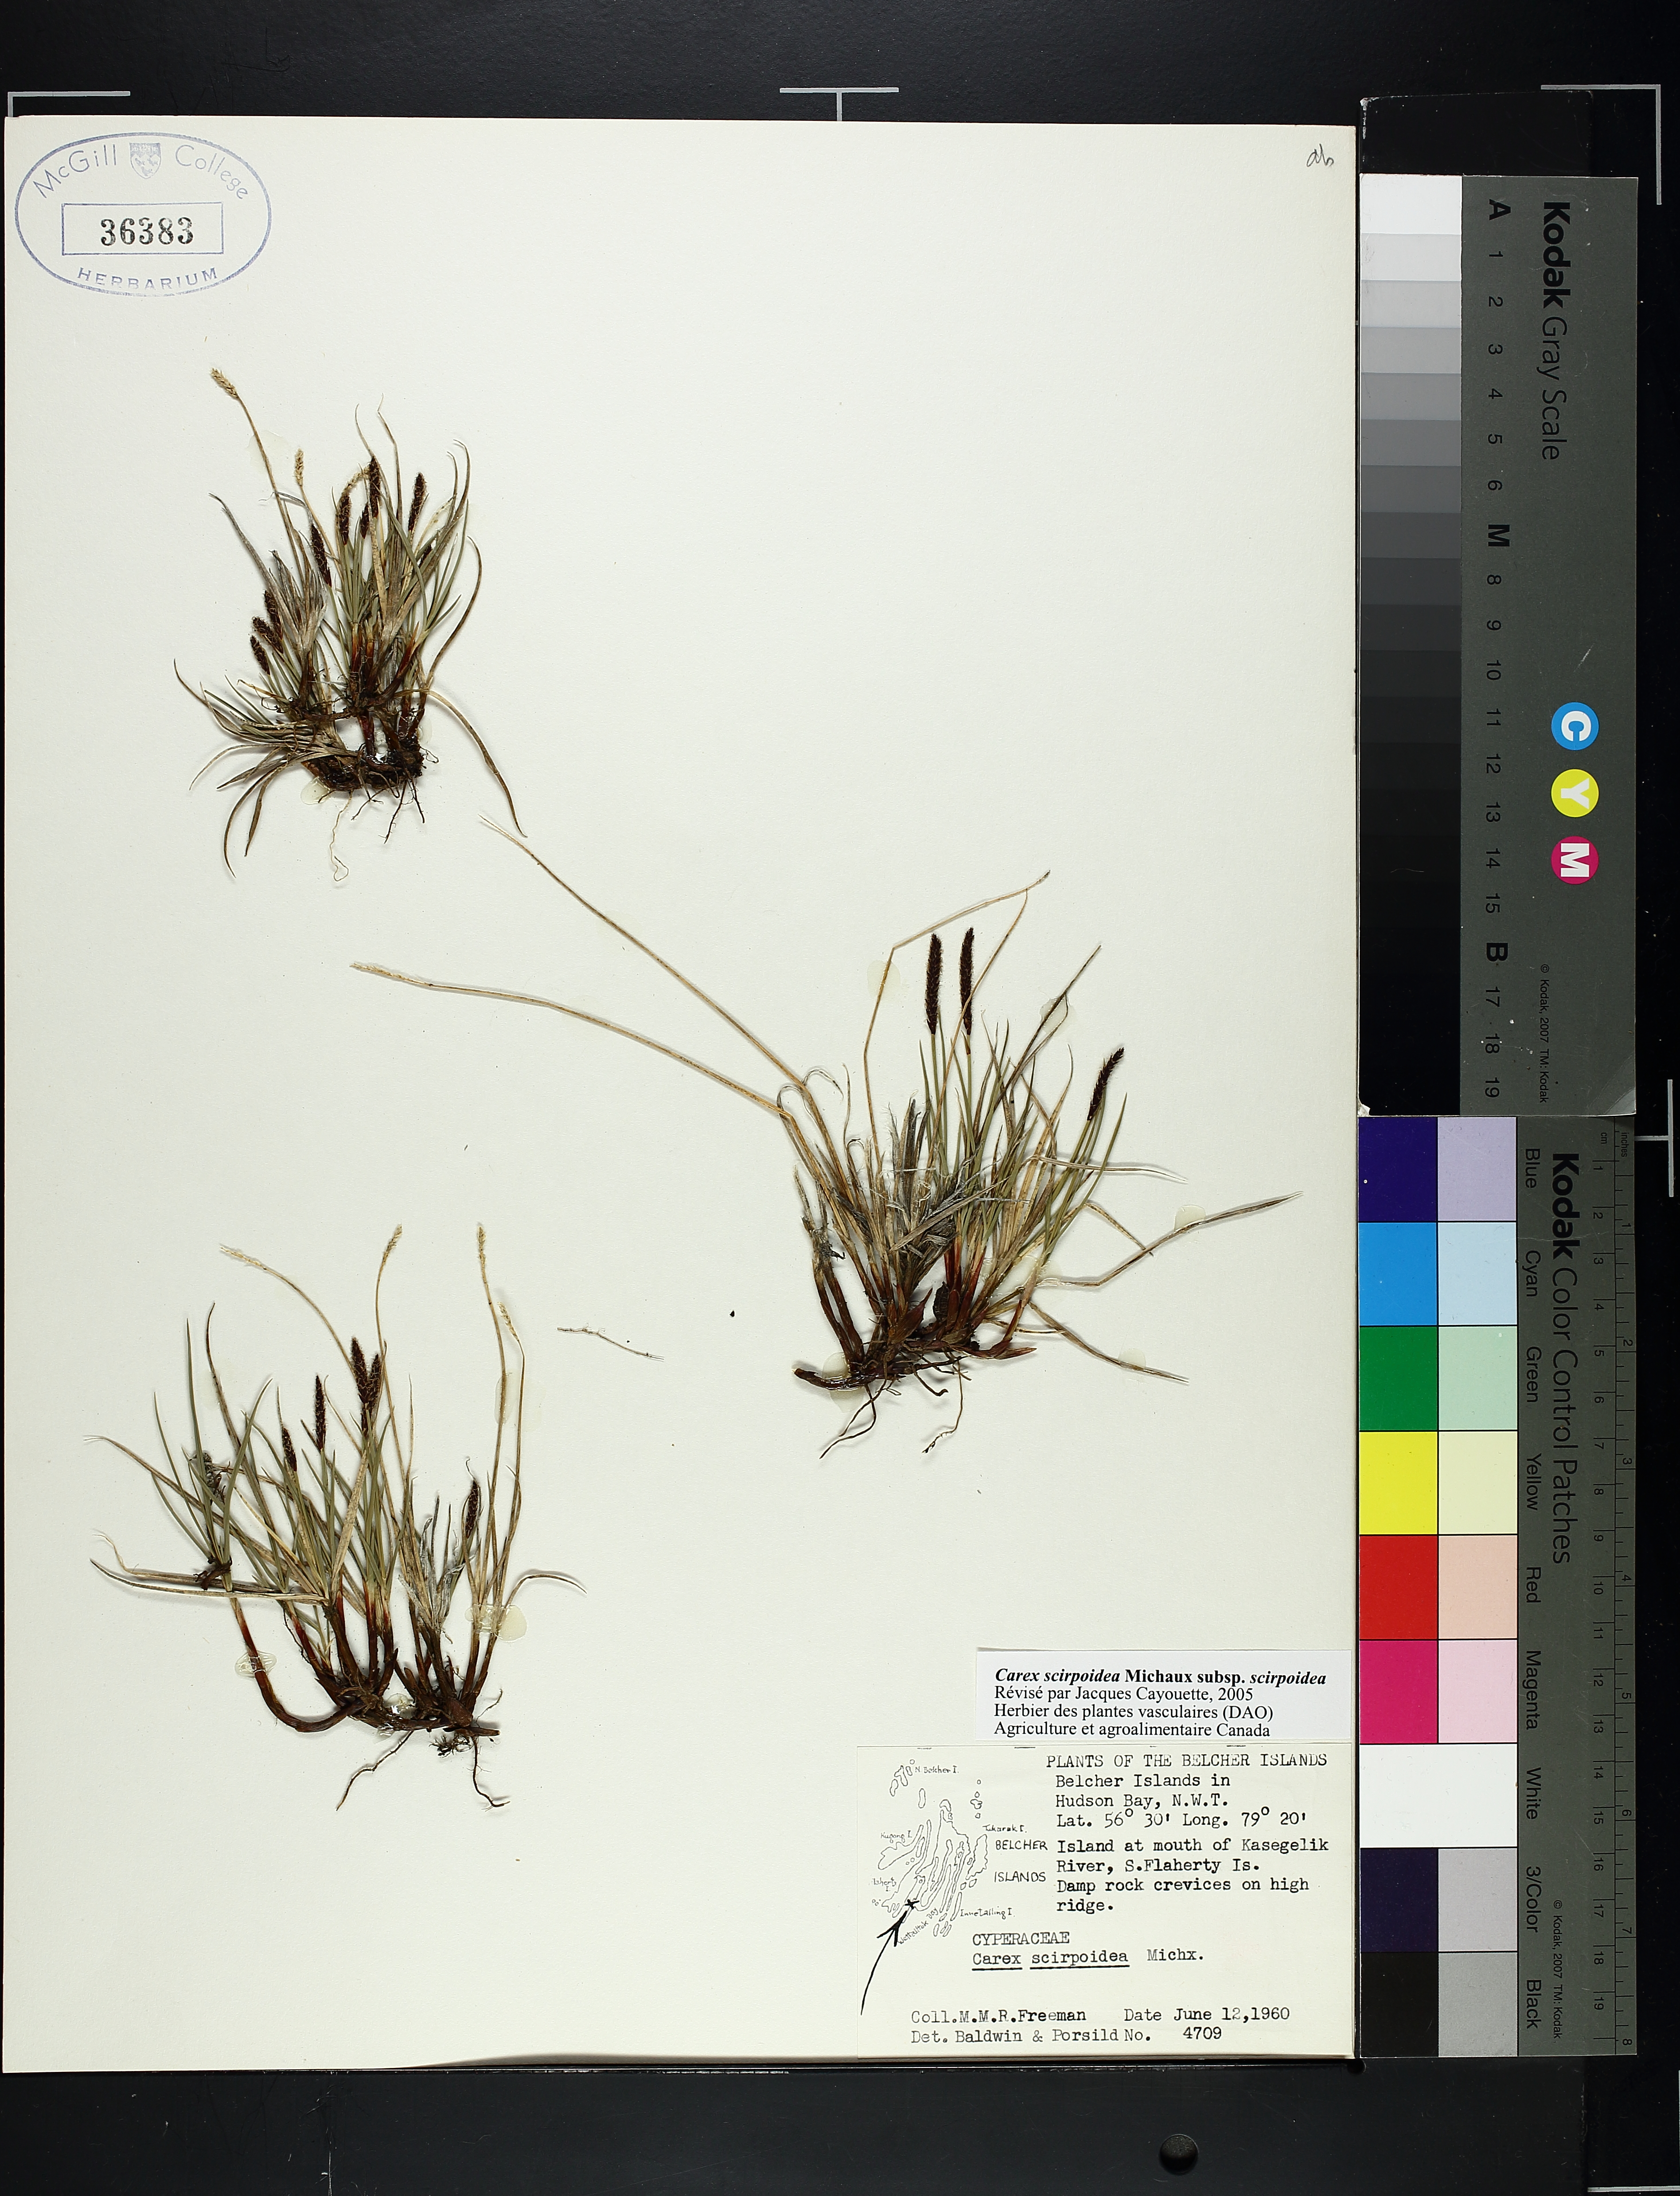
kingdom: Plantae
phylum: Tracheophyta
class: Liliopsida
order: Poales
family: Cyperaceae
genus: Carex
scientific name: Carex scirpoidea
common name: Canada single-spike sedge
